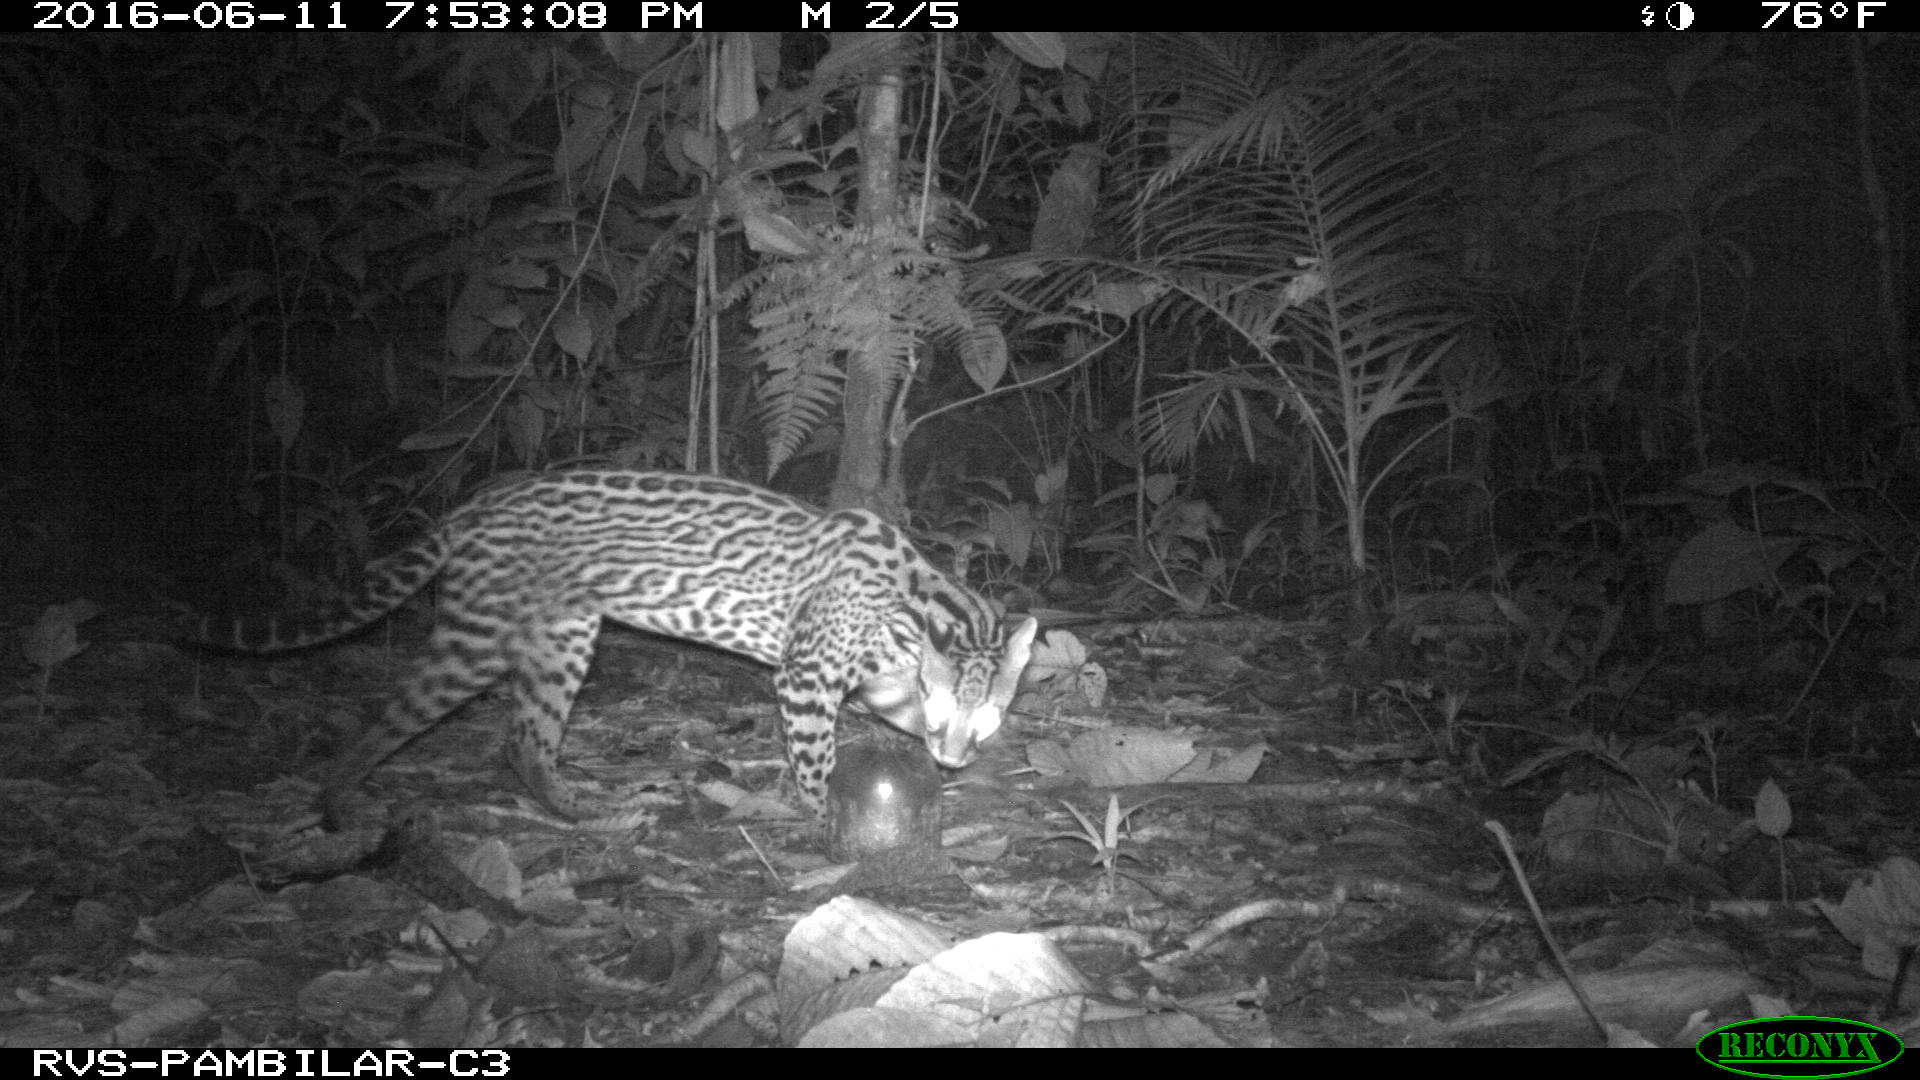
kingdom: Animalia
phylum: Chordata
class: Mammalia
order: Carnivora
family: Felidae
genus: Leopardus
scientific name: Leopardus pardalis
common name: Ocelot
